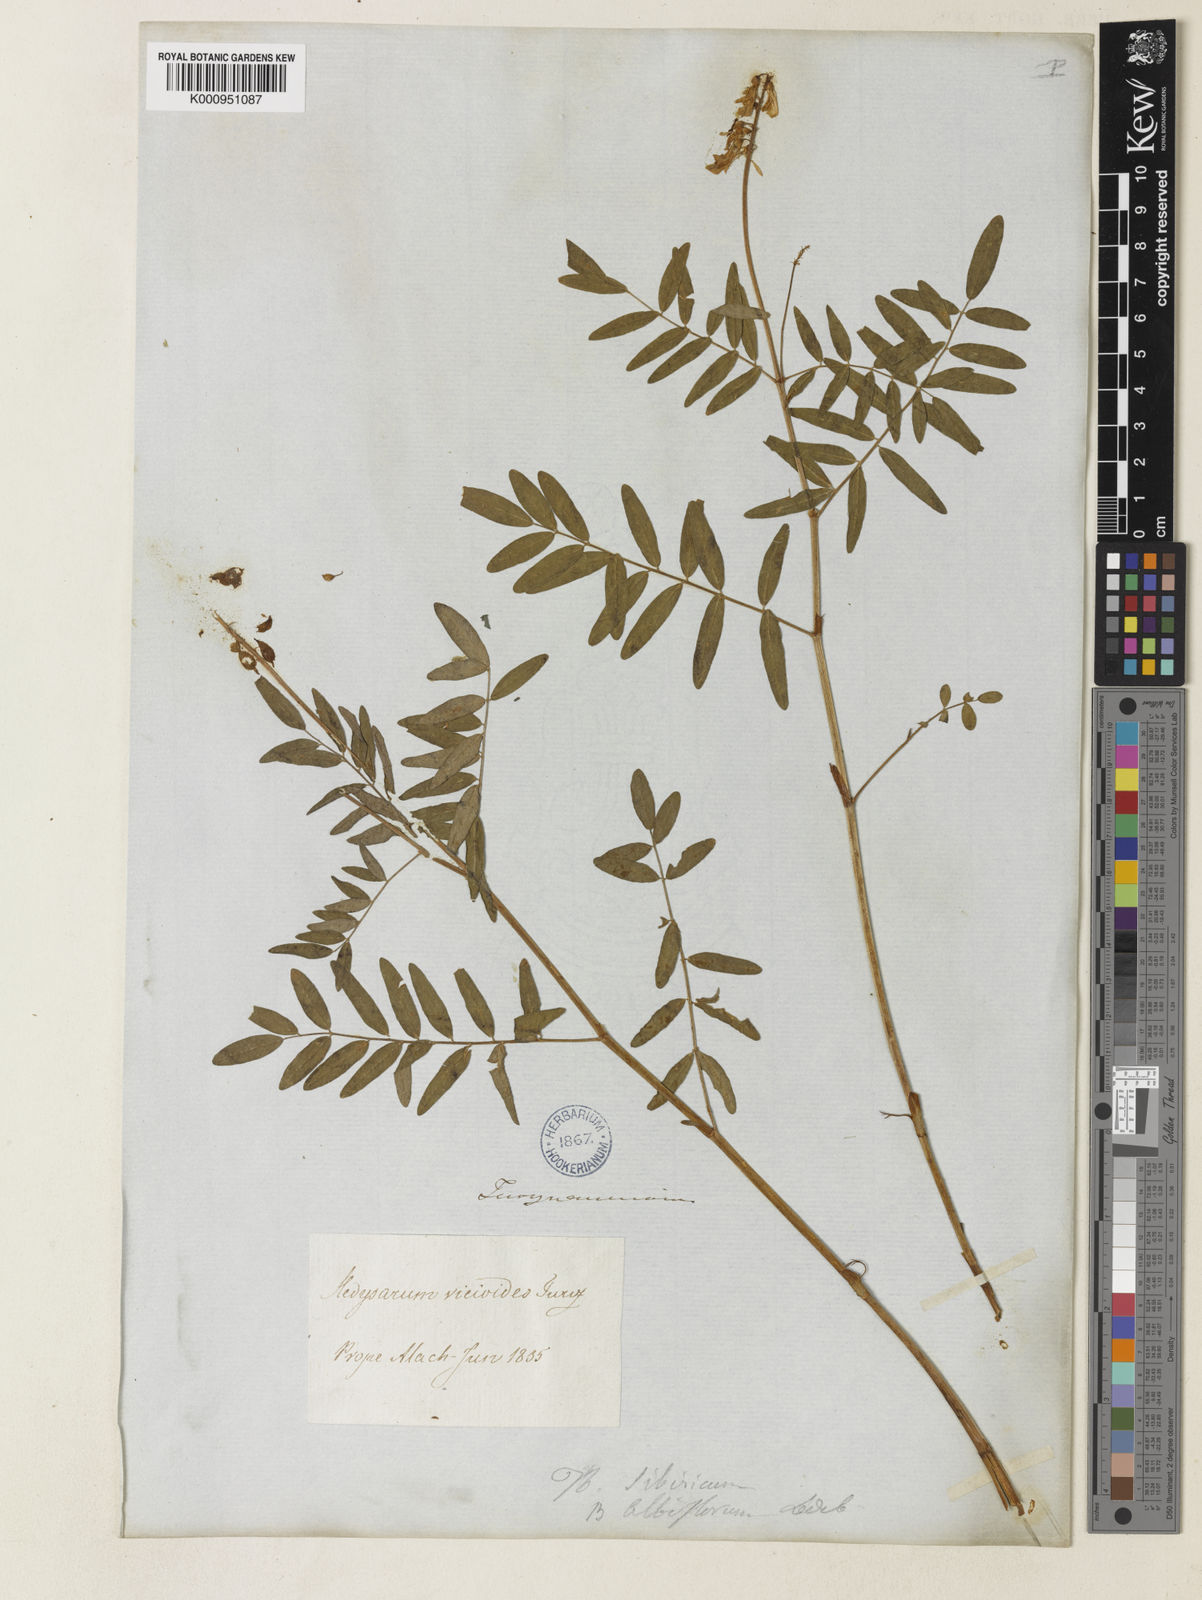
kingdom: Plantae
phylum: Tracheophyta
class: Magnoliopsida
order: Fabales
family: Fabaceae
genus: Hedysarum
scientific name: Hedysarum
